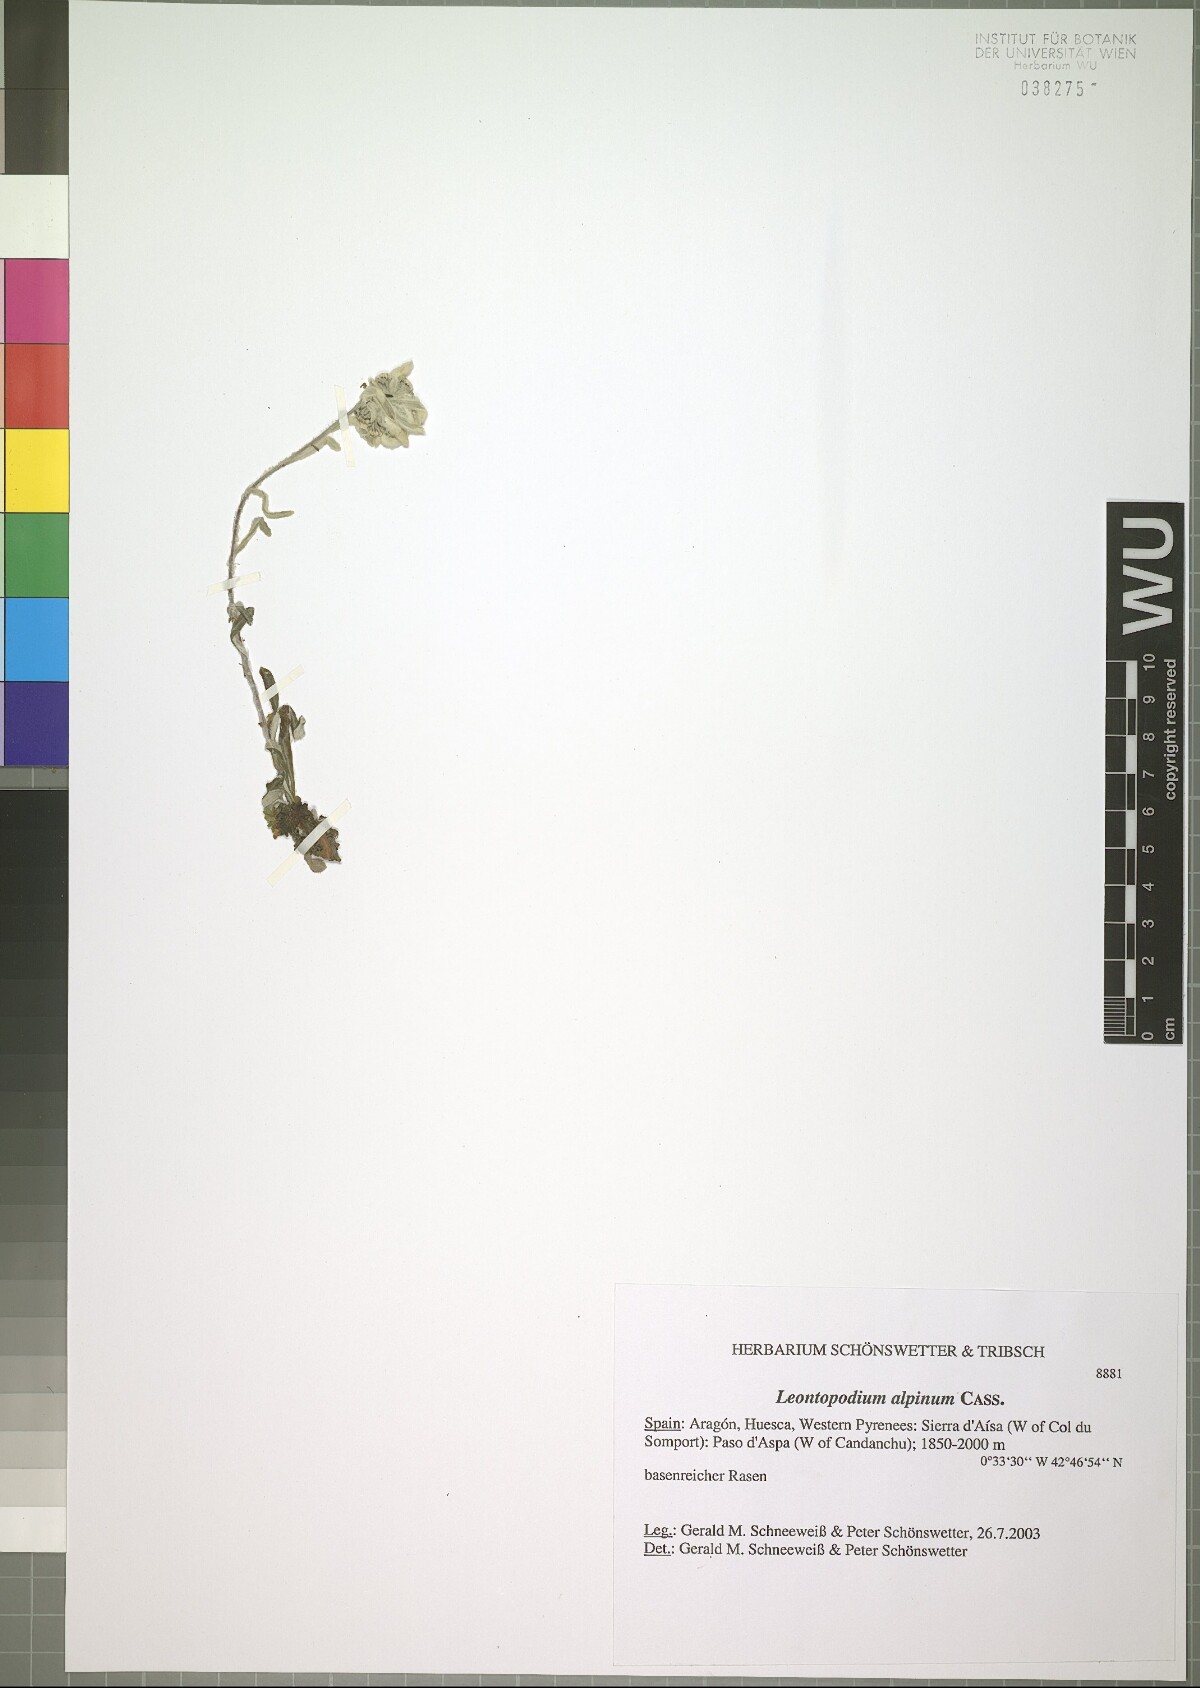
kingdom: Plantae
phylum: Tracheophyta
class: Magnoliopsida
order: Asterales
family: Asteraceae
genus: Leontopodium
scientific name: Leontopodium nivale
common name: Edelweiss
